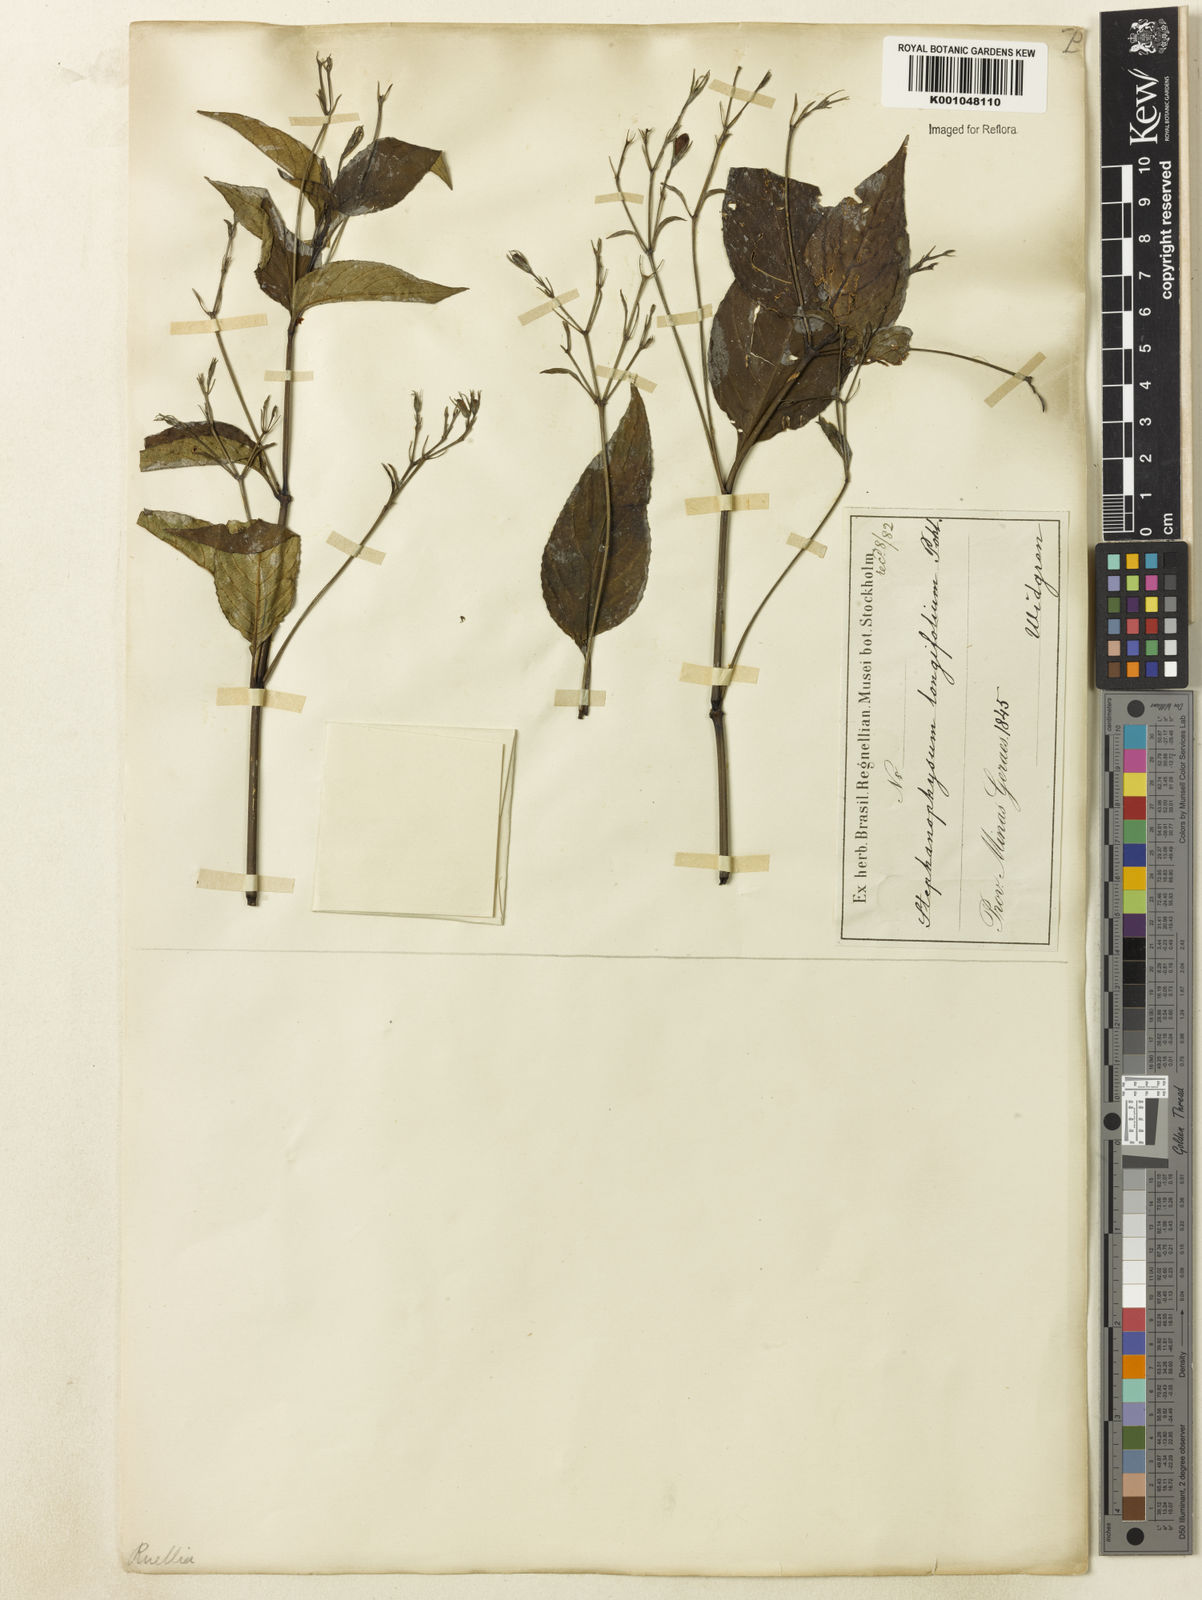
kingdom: Plantae
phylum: Tracheophyta
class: Magnoliopsida
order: Lamiales
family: Acanthaceae
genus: Ruellia
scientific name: Ruellia brevifolia
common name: Tropical wild petunia
